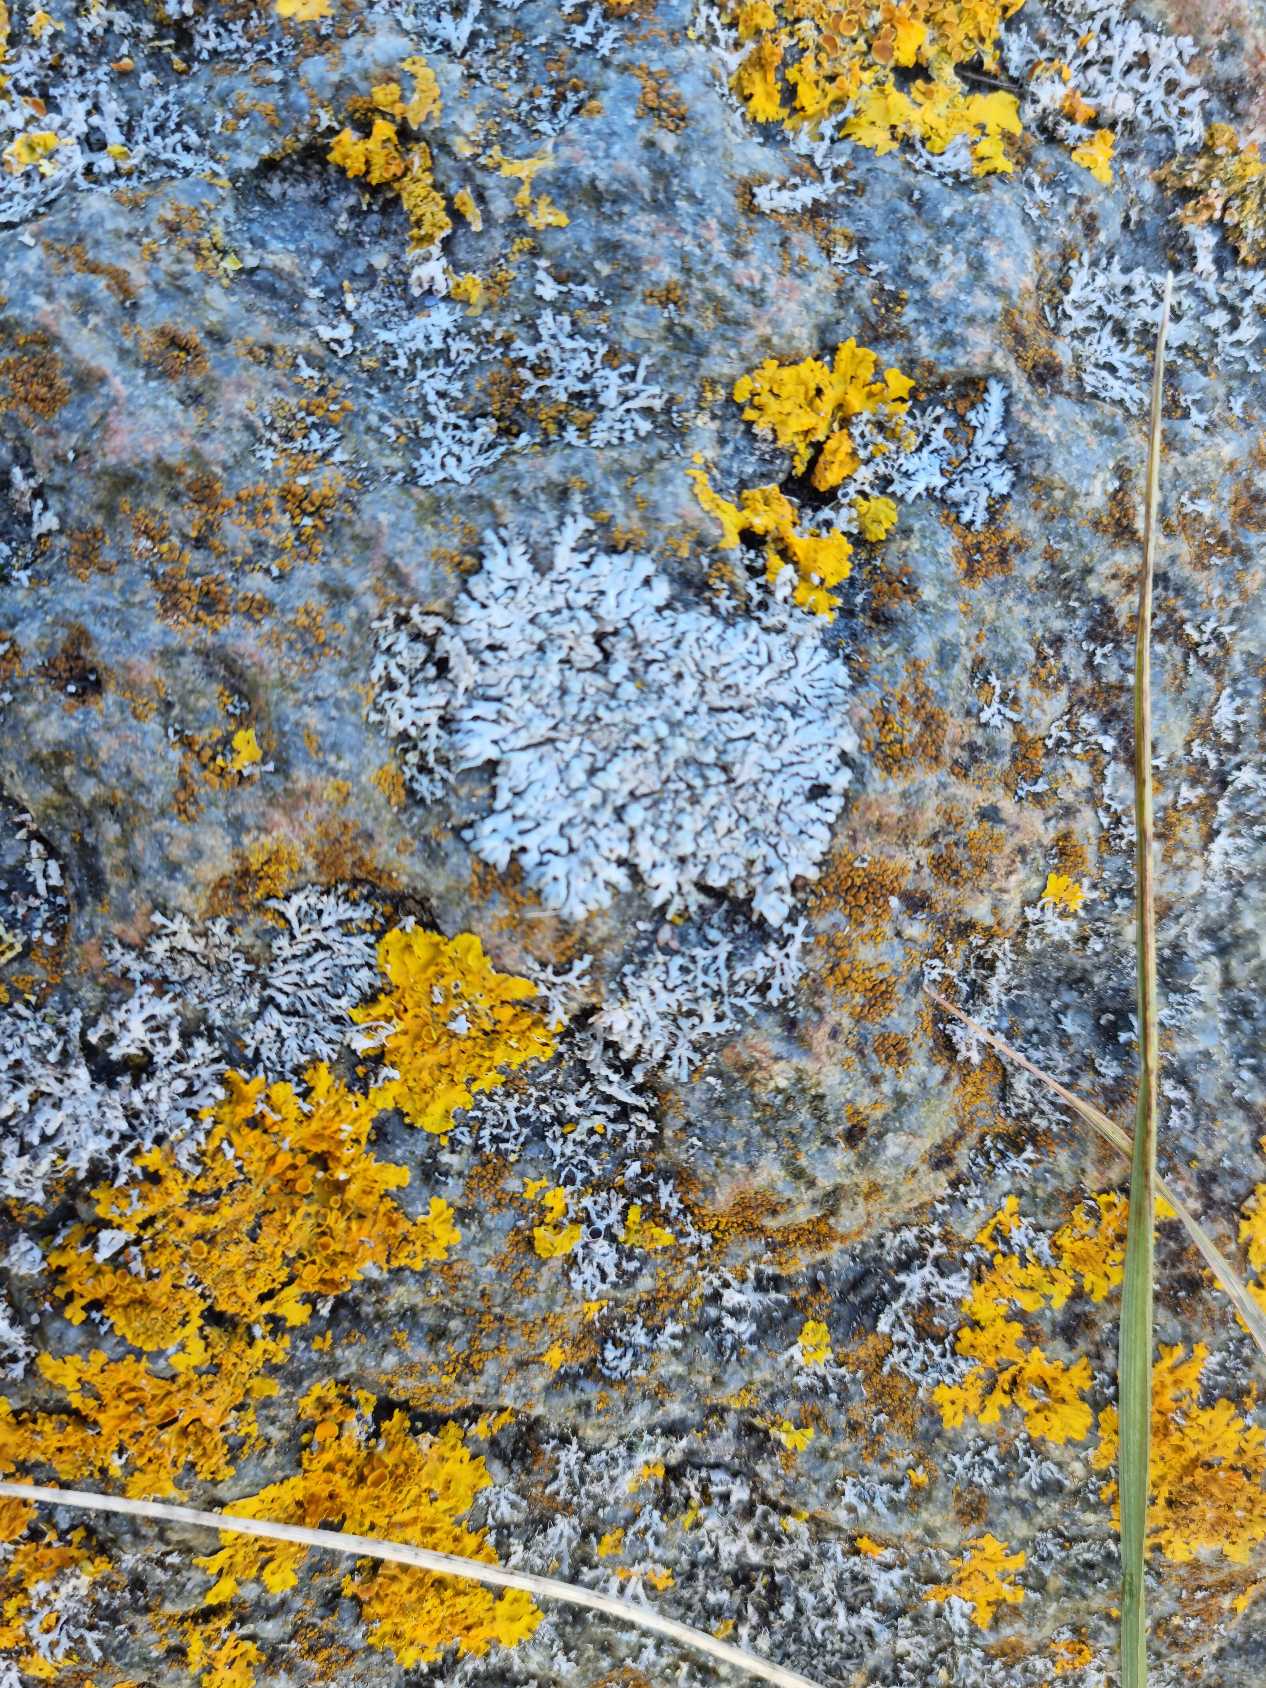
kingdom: Fungi
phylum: Ascomycota
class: Lecanoromycetes
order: Caliciales
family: Physciaceae
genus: Physcia
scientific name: Physcia caesia
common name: Blågrå rosetlav
